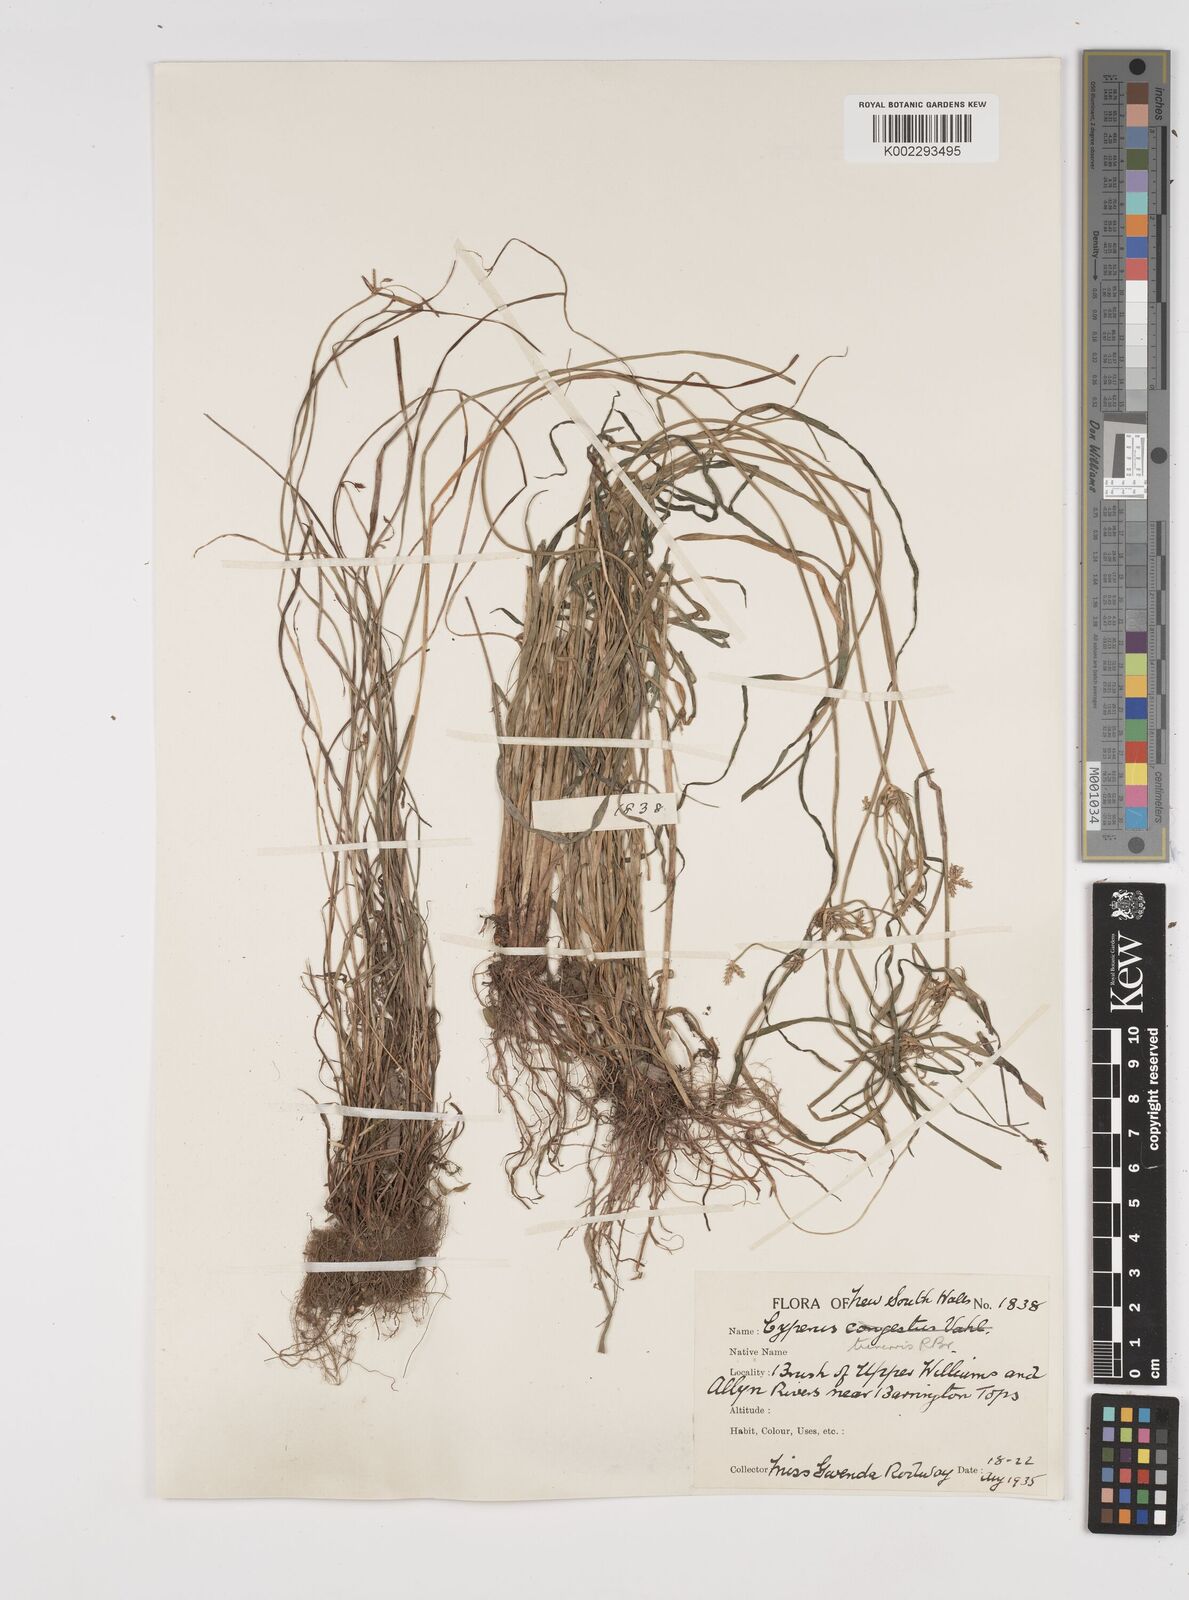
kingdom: Plantae
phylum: Tracheophyta
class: Liliopsida
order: Poales
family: Cyperaceae
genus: Cyperus
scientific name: Cyperus trinervis
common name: Australian flatsedge
